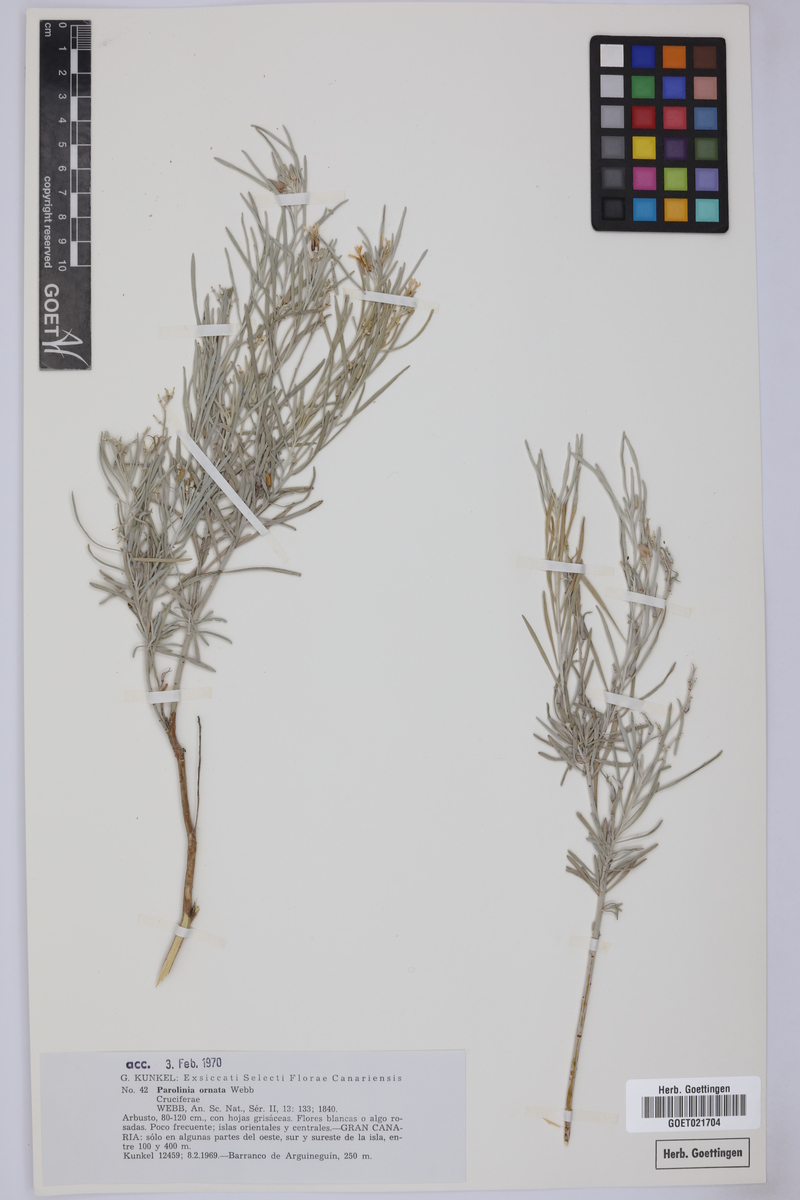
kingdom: Plantae
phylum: Tracheophyta
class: Magnoliopsida
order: Brassicales
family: Brassicaceae
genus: Parolinia
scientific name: Parolinia ornata
